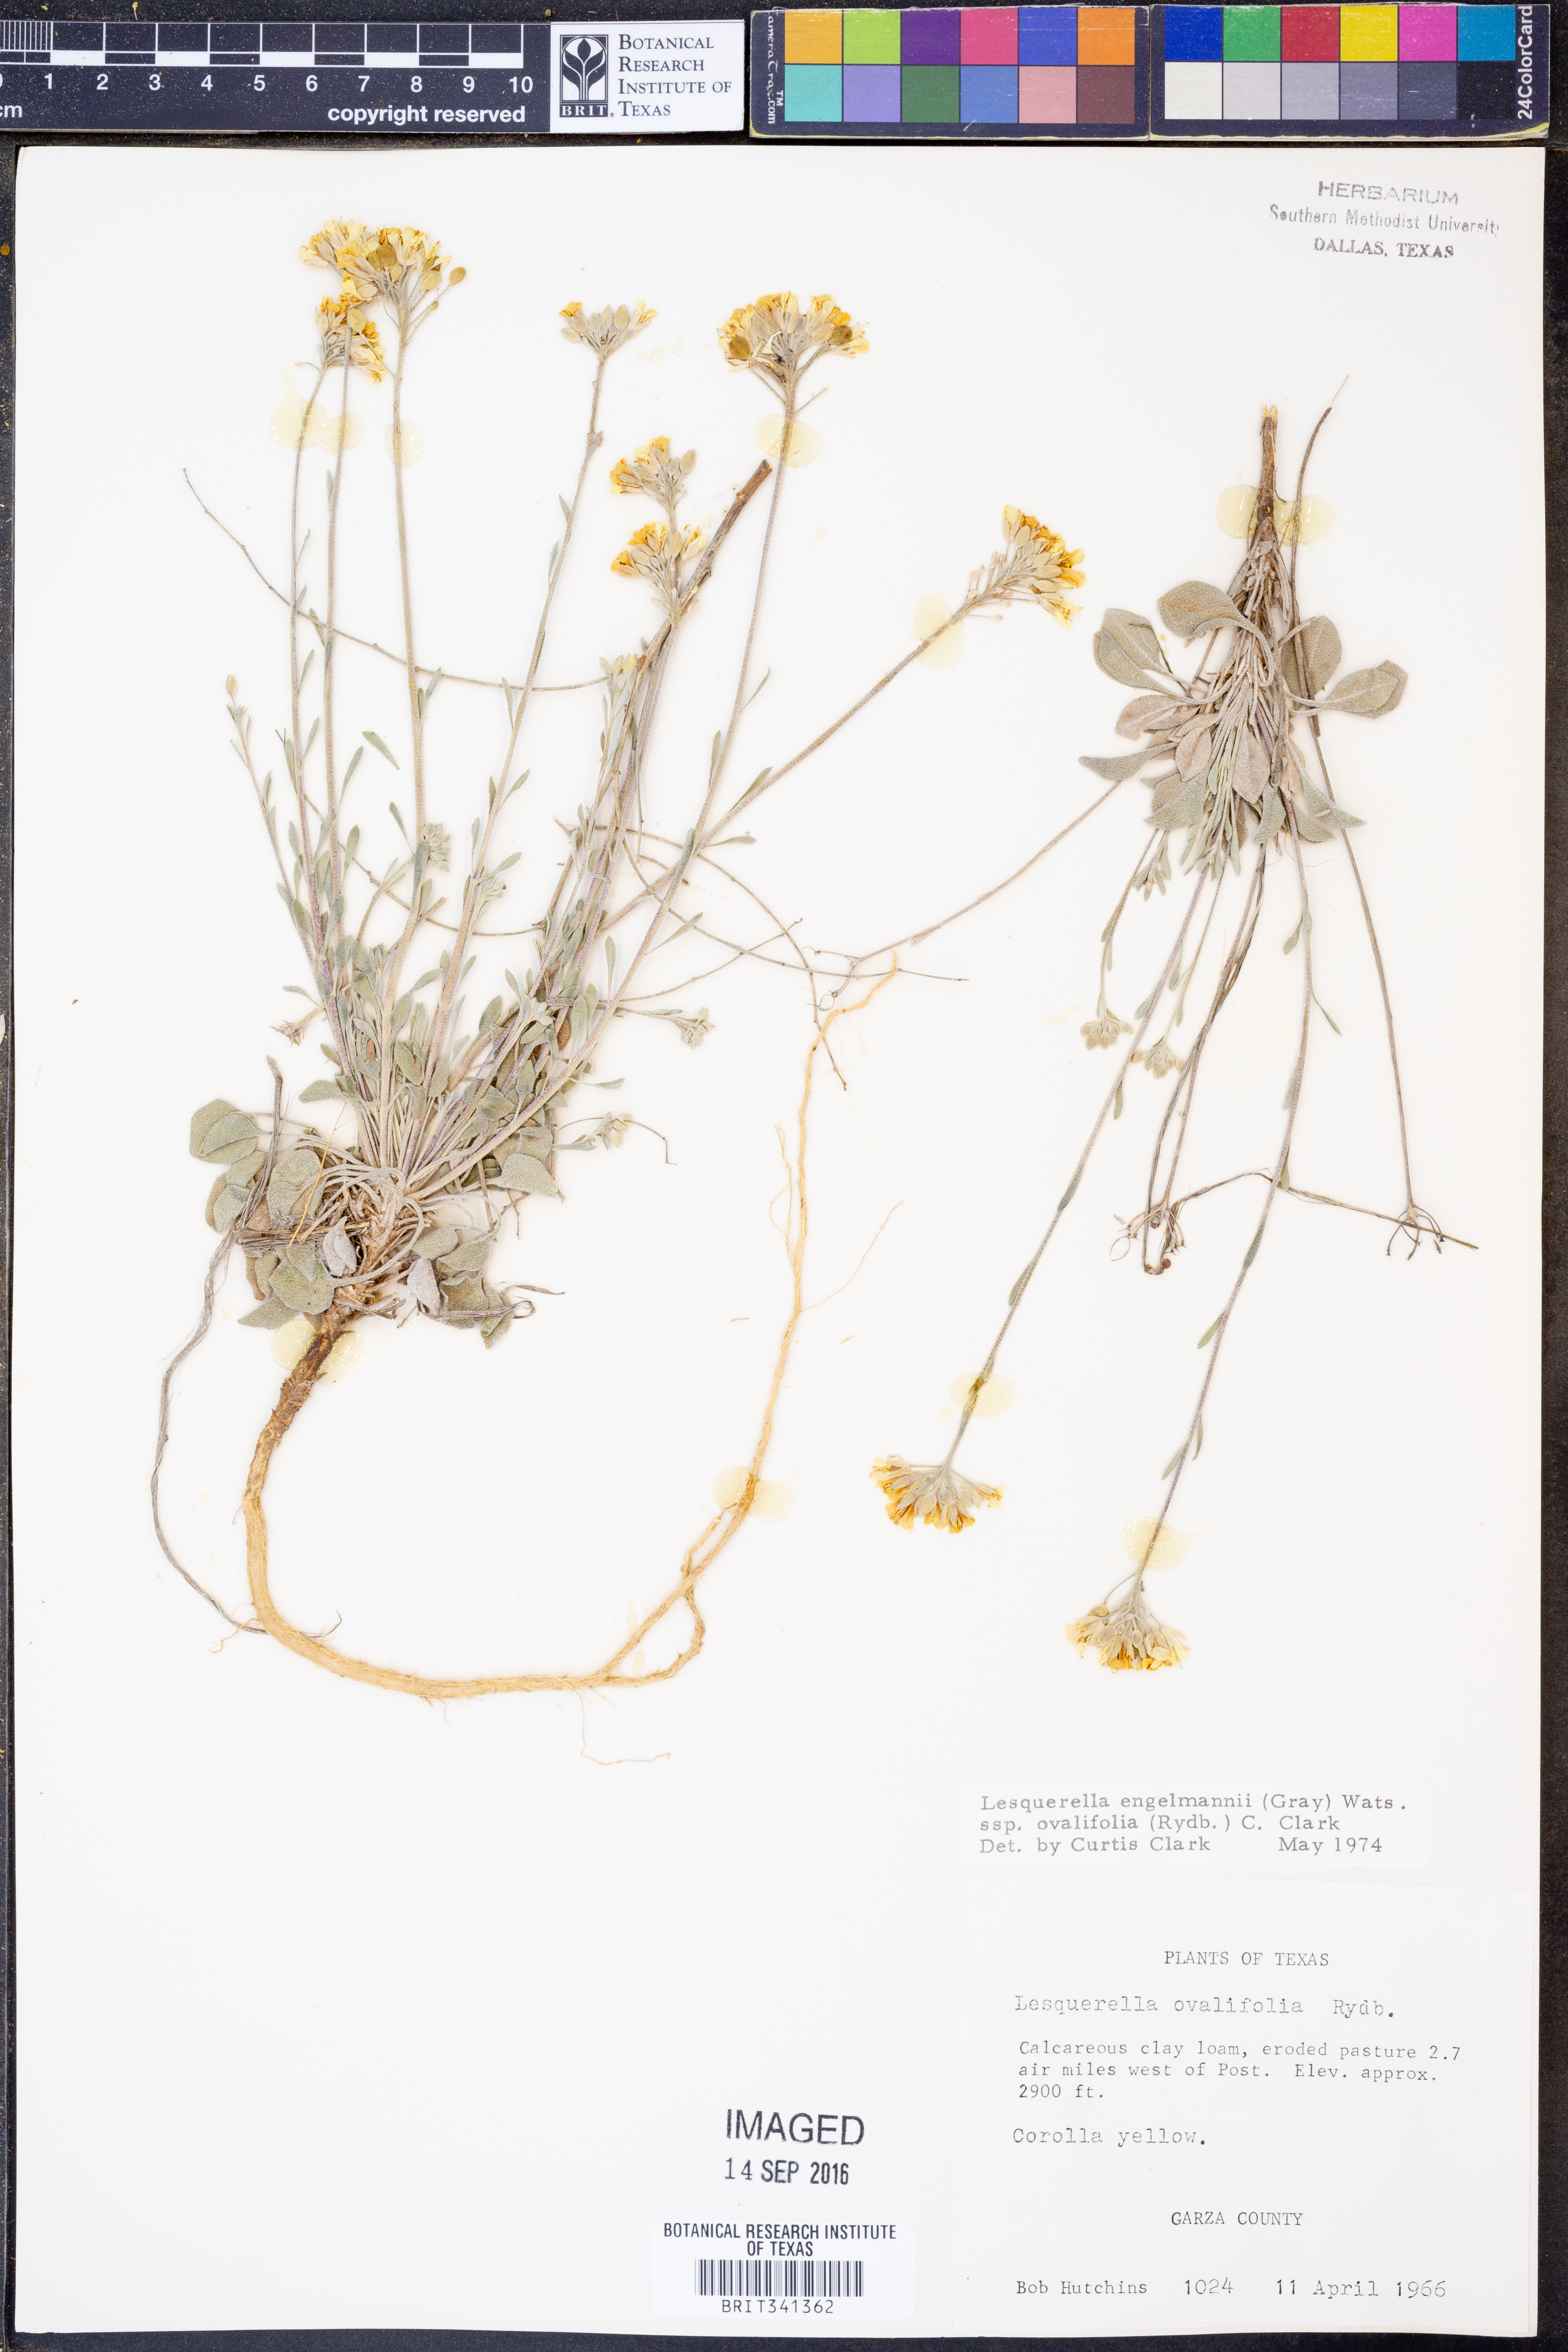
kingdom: Plantae
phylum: Tracheophyta
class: Magnoliopsida
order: Brassicales
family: Brassicaceae
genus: Physaria
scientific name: Physaria ovalifolia
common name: Round-leaf bladderpod
